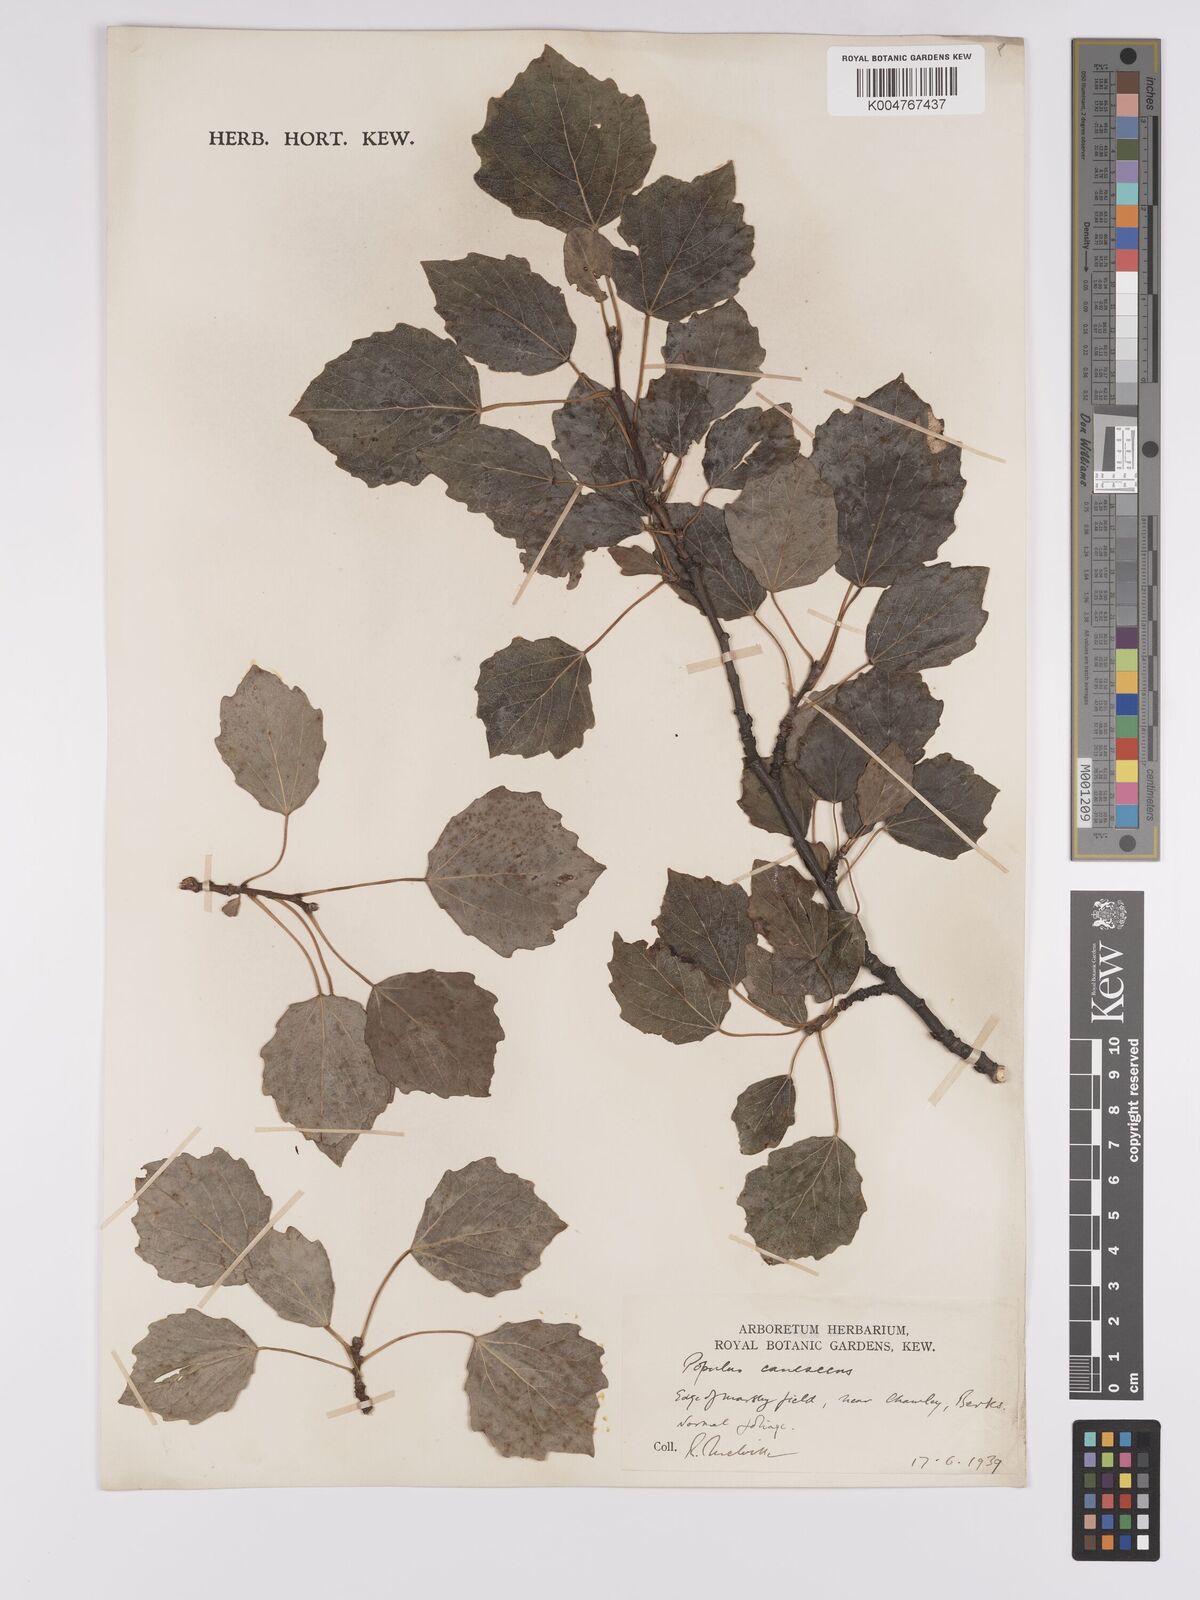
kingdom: Plantae
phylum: Tracheophyta
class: Magnoliopsida
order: Malpighiales
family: Salicaceae
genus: Populus
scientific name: Populus canescens
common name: Gray poplar
